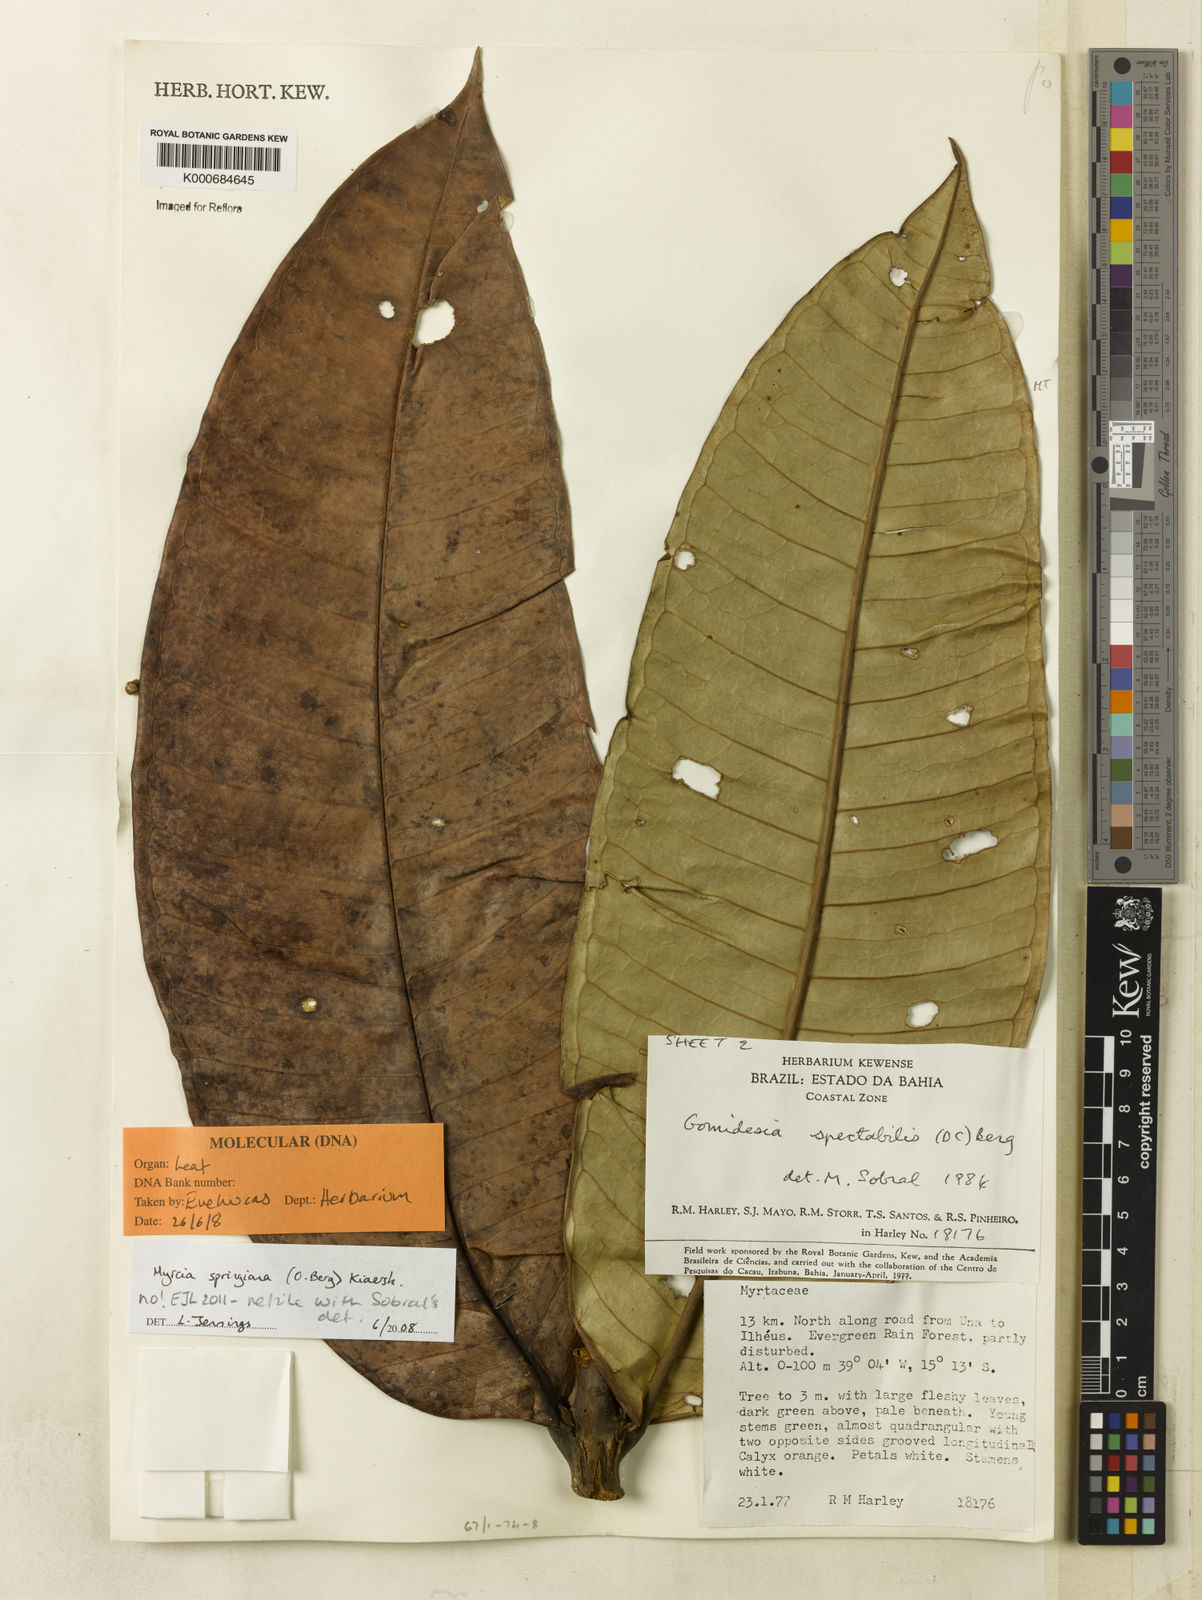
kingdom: Plantae
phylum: Tracheophyta
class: Magnoliopsida
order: Myrtales
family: Myrtaceae
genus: Myrcia
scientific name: Myrcia
